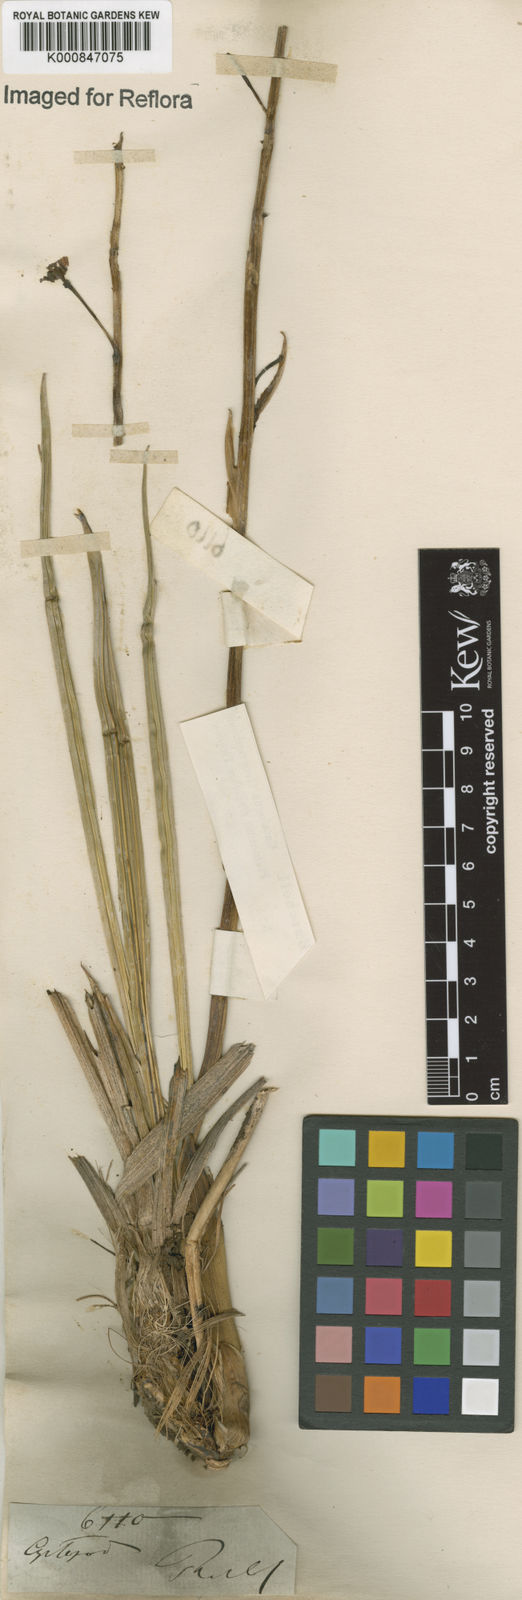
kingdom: Plantae
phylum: Tracheophyta
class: Liliopsida
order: Asparagales
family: Orchidaceae
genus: Cyrtopodium
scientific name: Cyrtopodium
